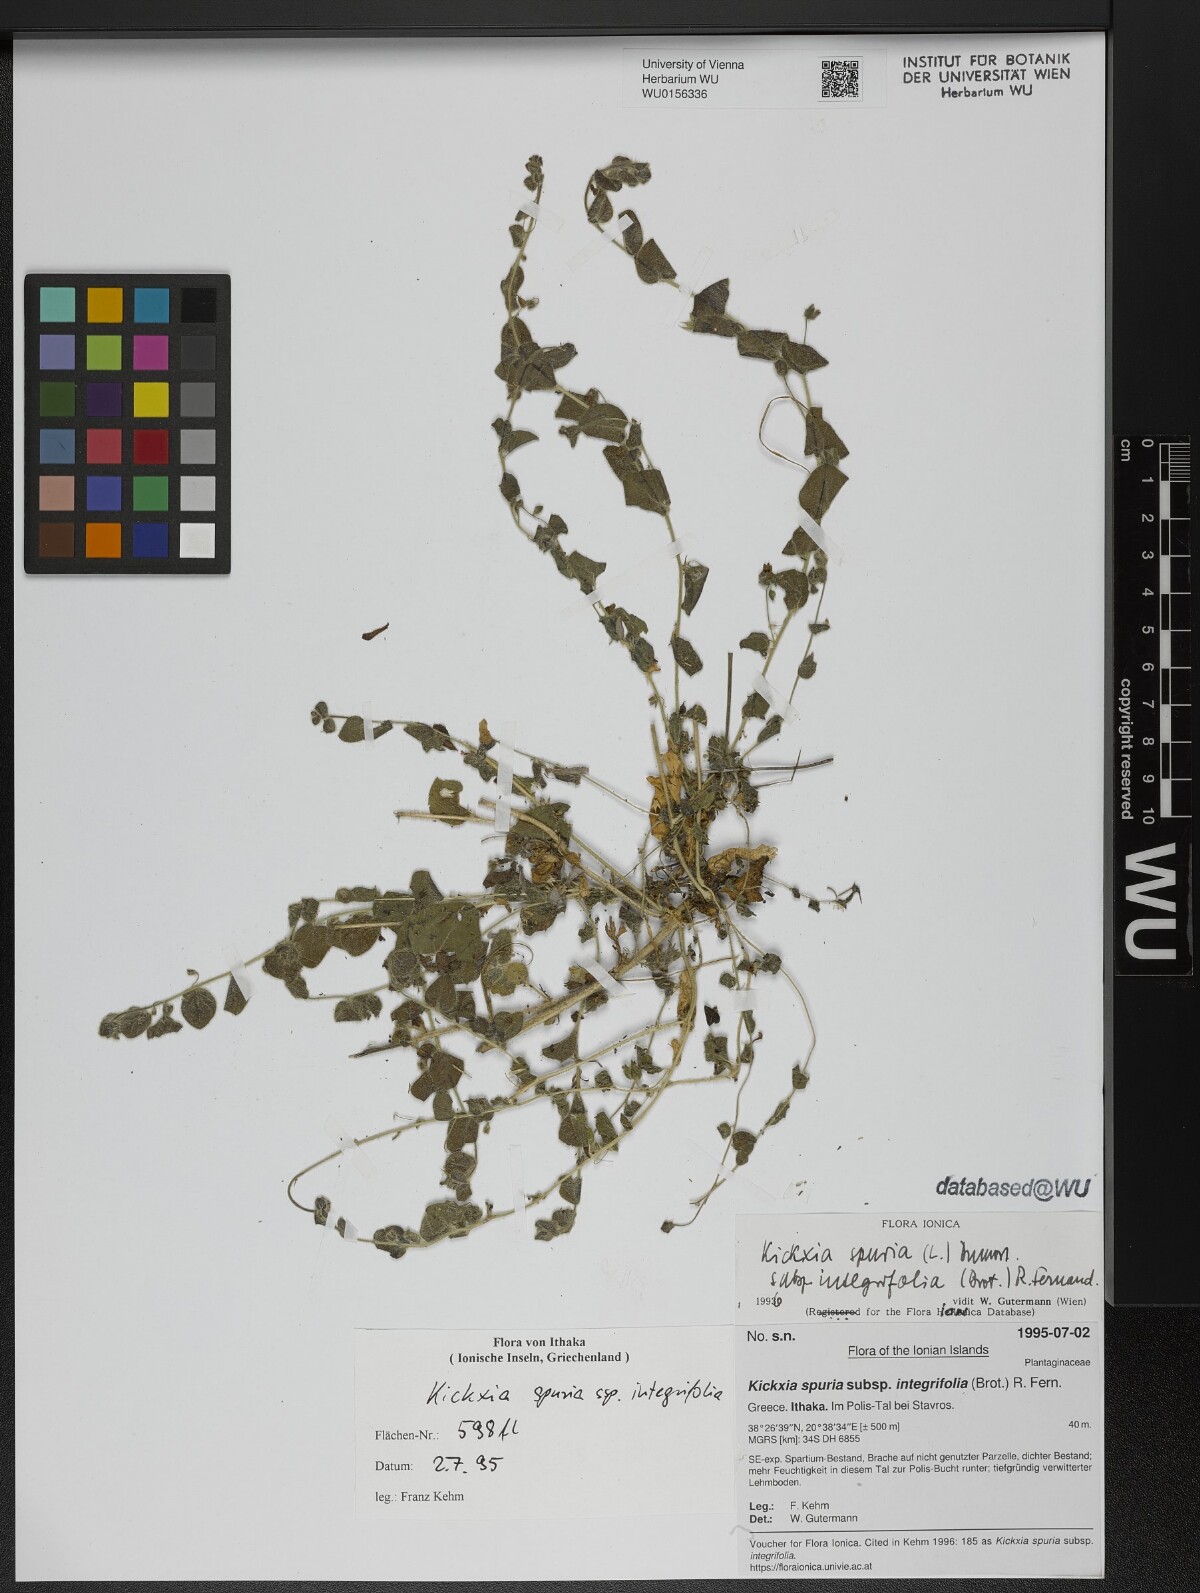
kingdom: Plantae
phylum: Tracheophyta
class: Magnoliopsida
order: Lamiales
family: Plantaginaceae
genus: Kickxia
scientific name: Kickxia spuria
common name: Round-leaved fluellen
